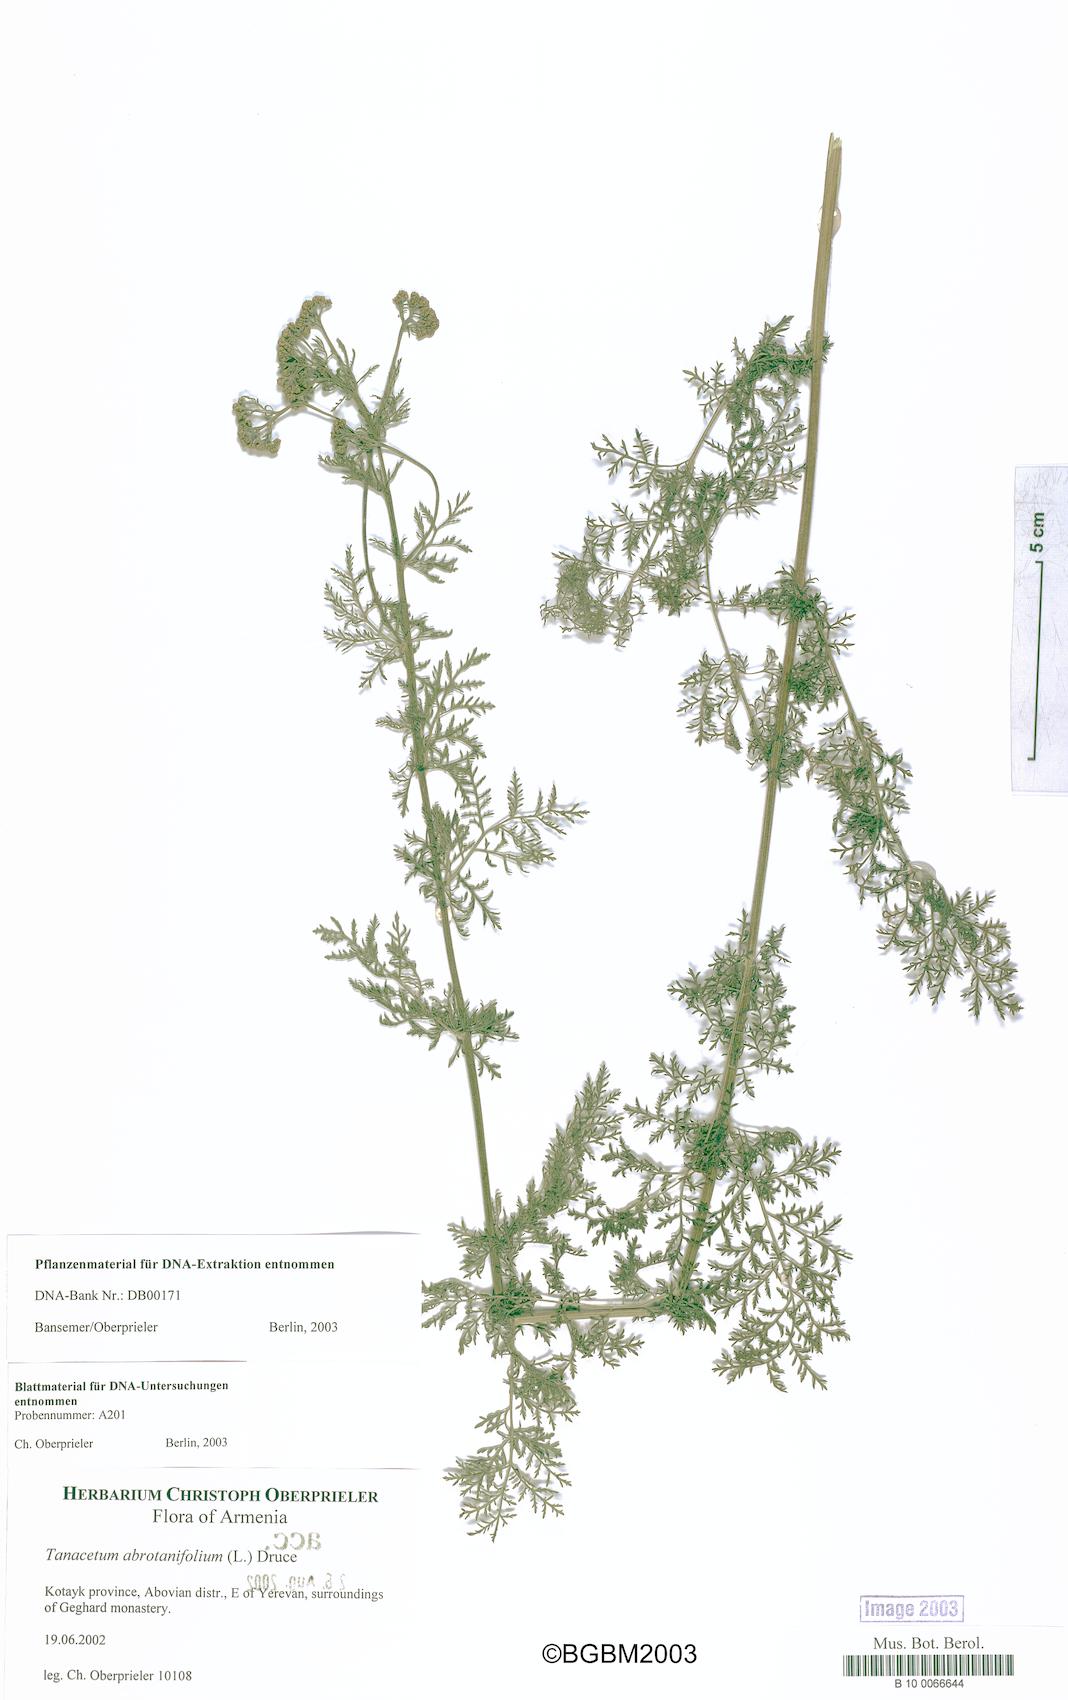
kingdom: Plantae
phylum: Tracheophyta
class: Magnoliopsida
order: Asterales
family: Asteraceae
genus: Tanacetum
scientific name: Tanacetum abrotanifolium
